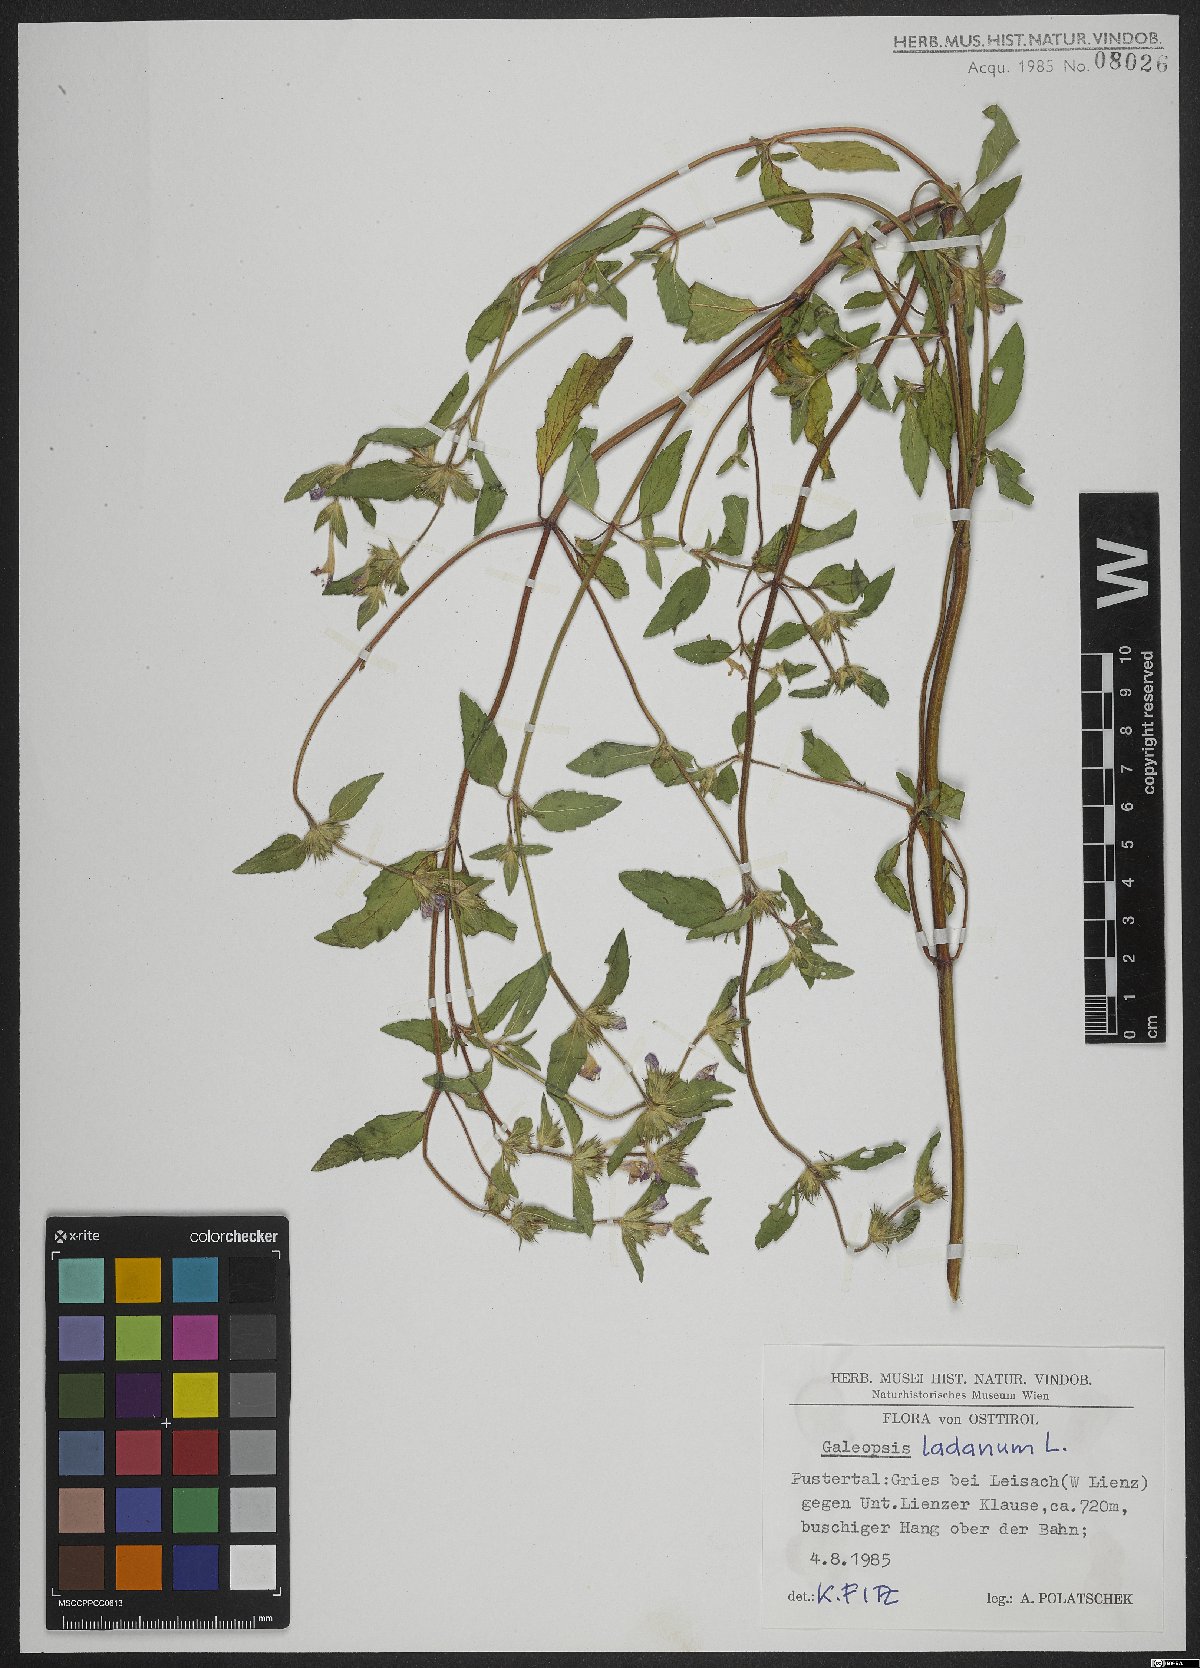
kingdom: Plantae
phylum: Tracheophyta
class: Magnoliopsida
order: Lamiales
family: Lamiaceae
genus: Galeopsis
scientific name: Galeopsis ladanum
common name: Broad-leaved hemp-nettle
